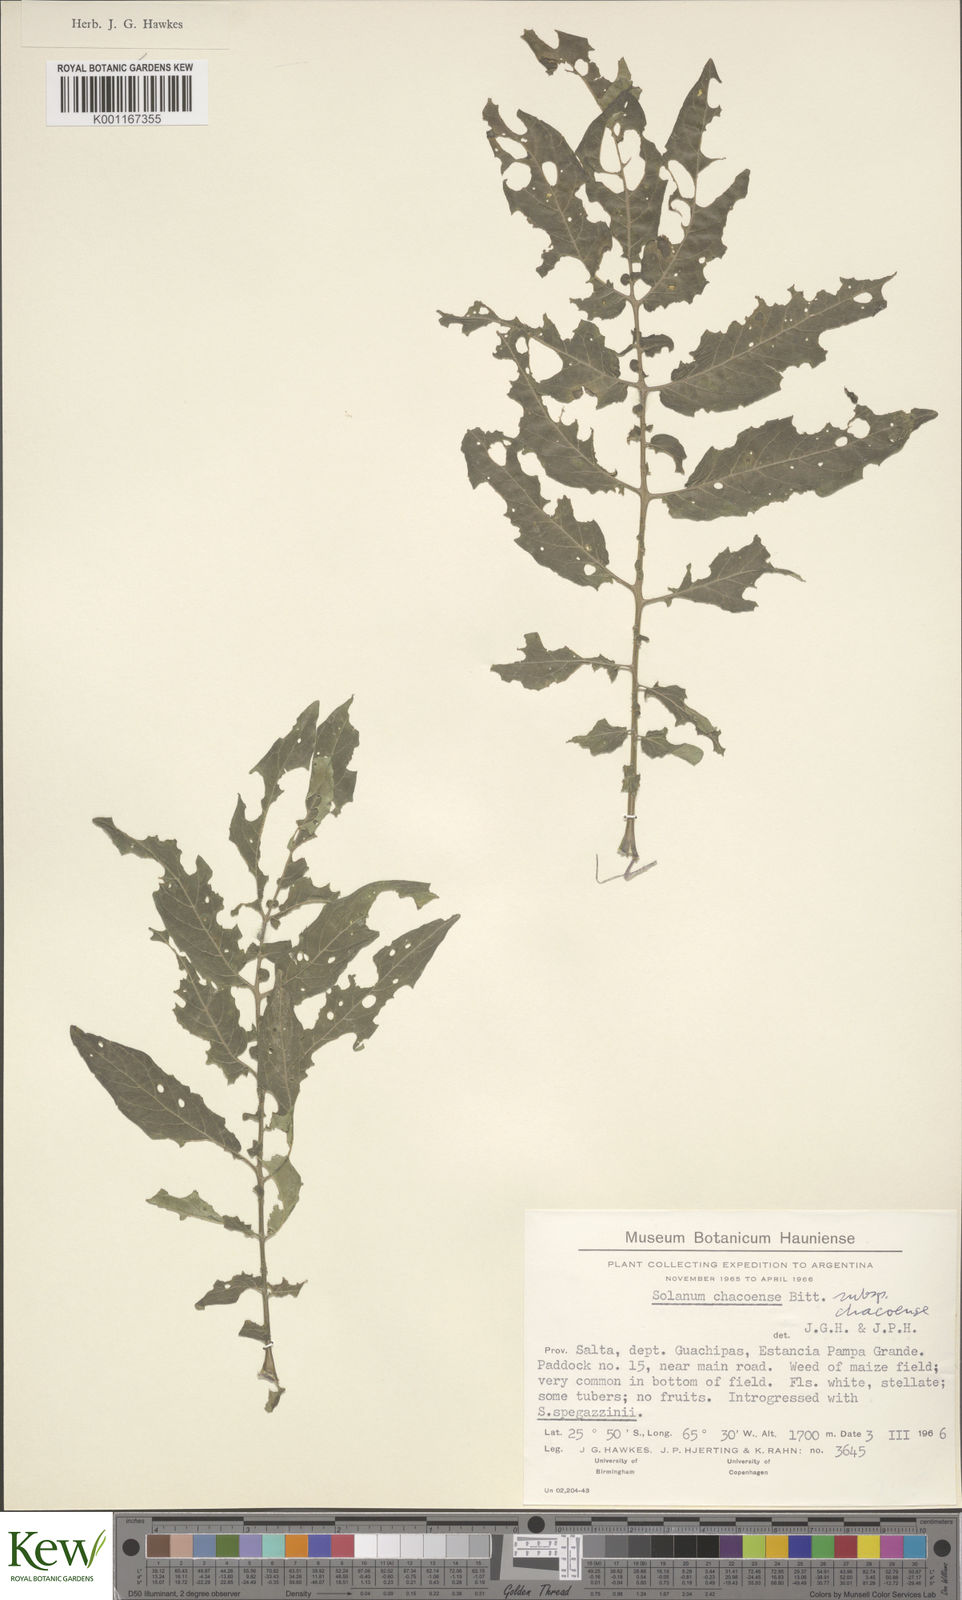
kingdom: Plantae
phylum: Tracheophyta
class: Magnoliopsida
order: Solanales
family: Solanaceae
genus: Solanum
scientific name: Solanum chacoense
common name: Chaco potato
